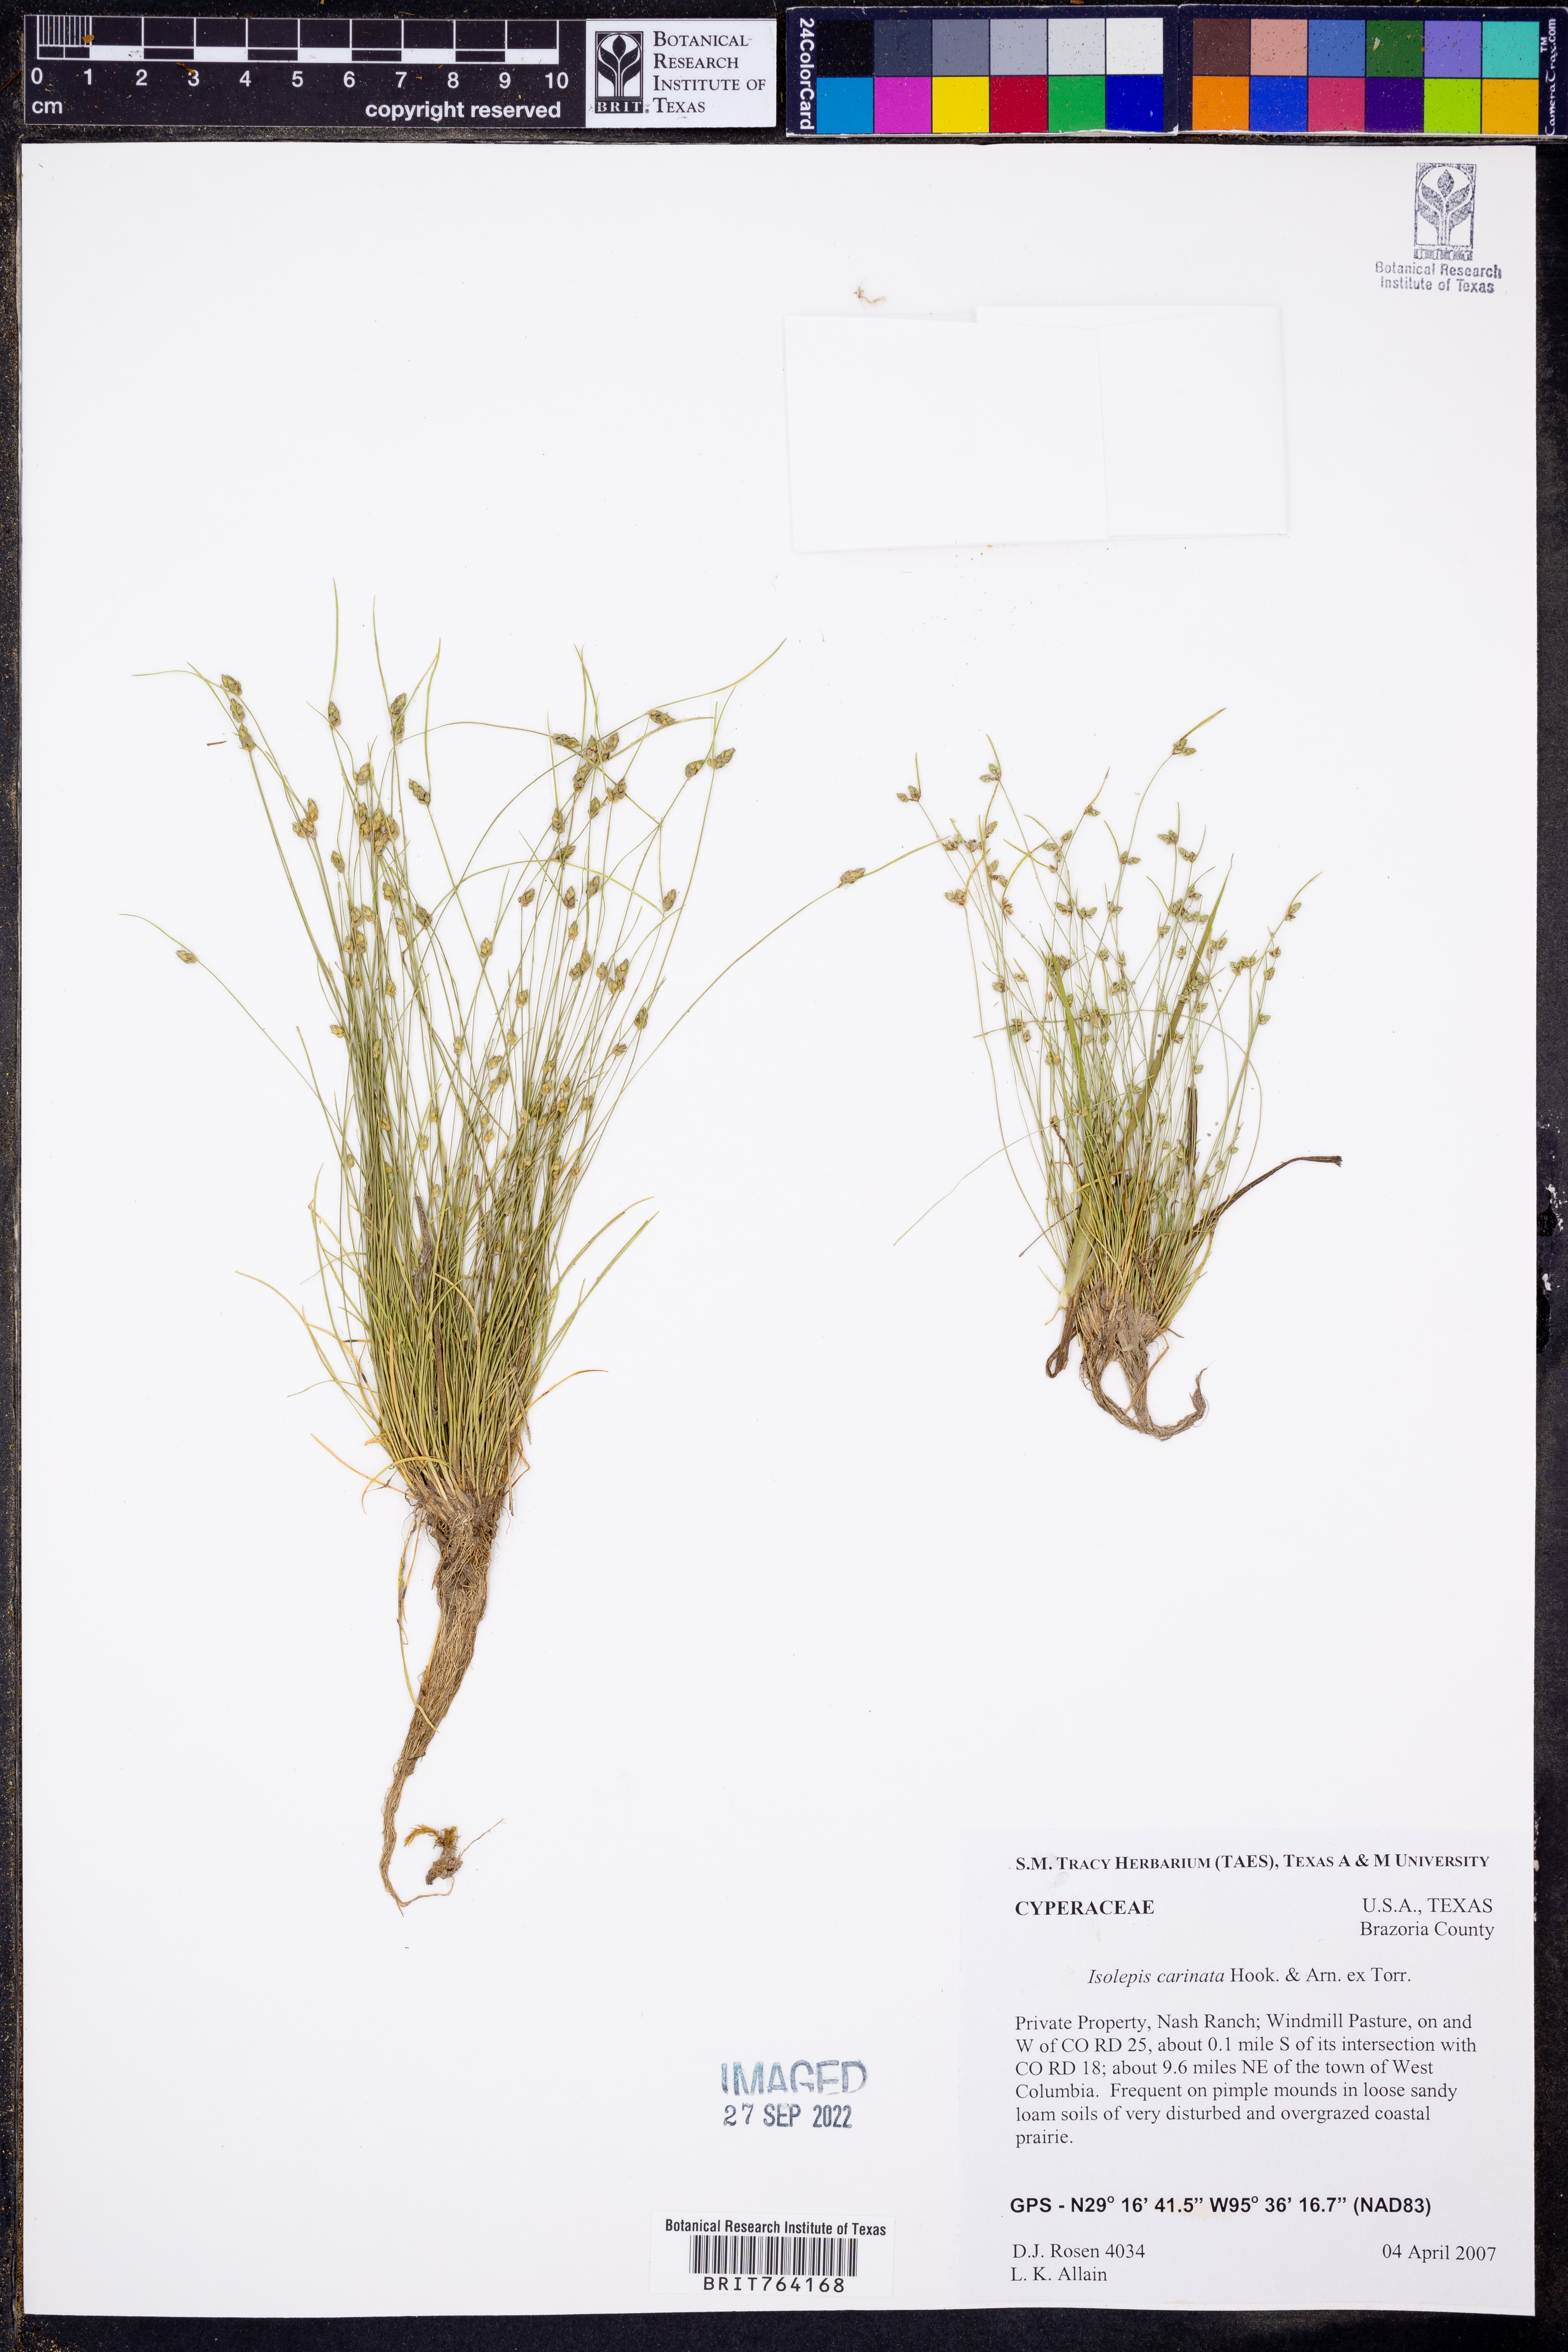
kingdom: Plantae
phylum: Tracheophyta
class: Liliopsida
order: Poales
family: Cyperaceae
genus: Isolepis
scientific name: Isolepis carinata
